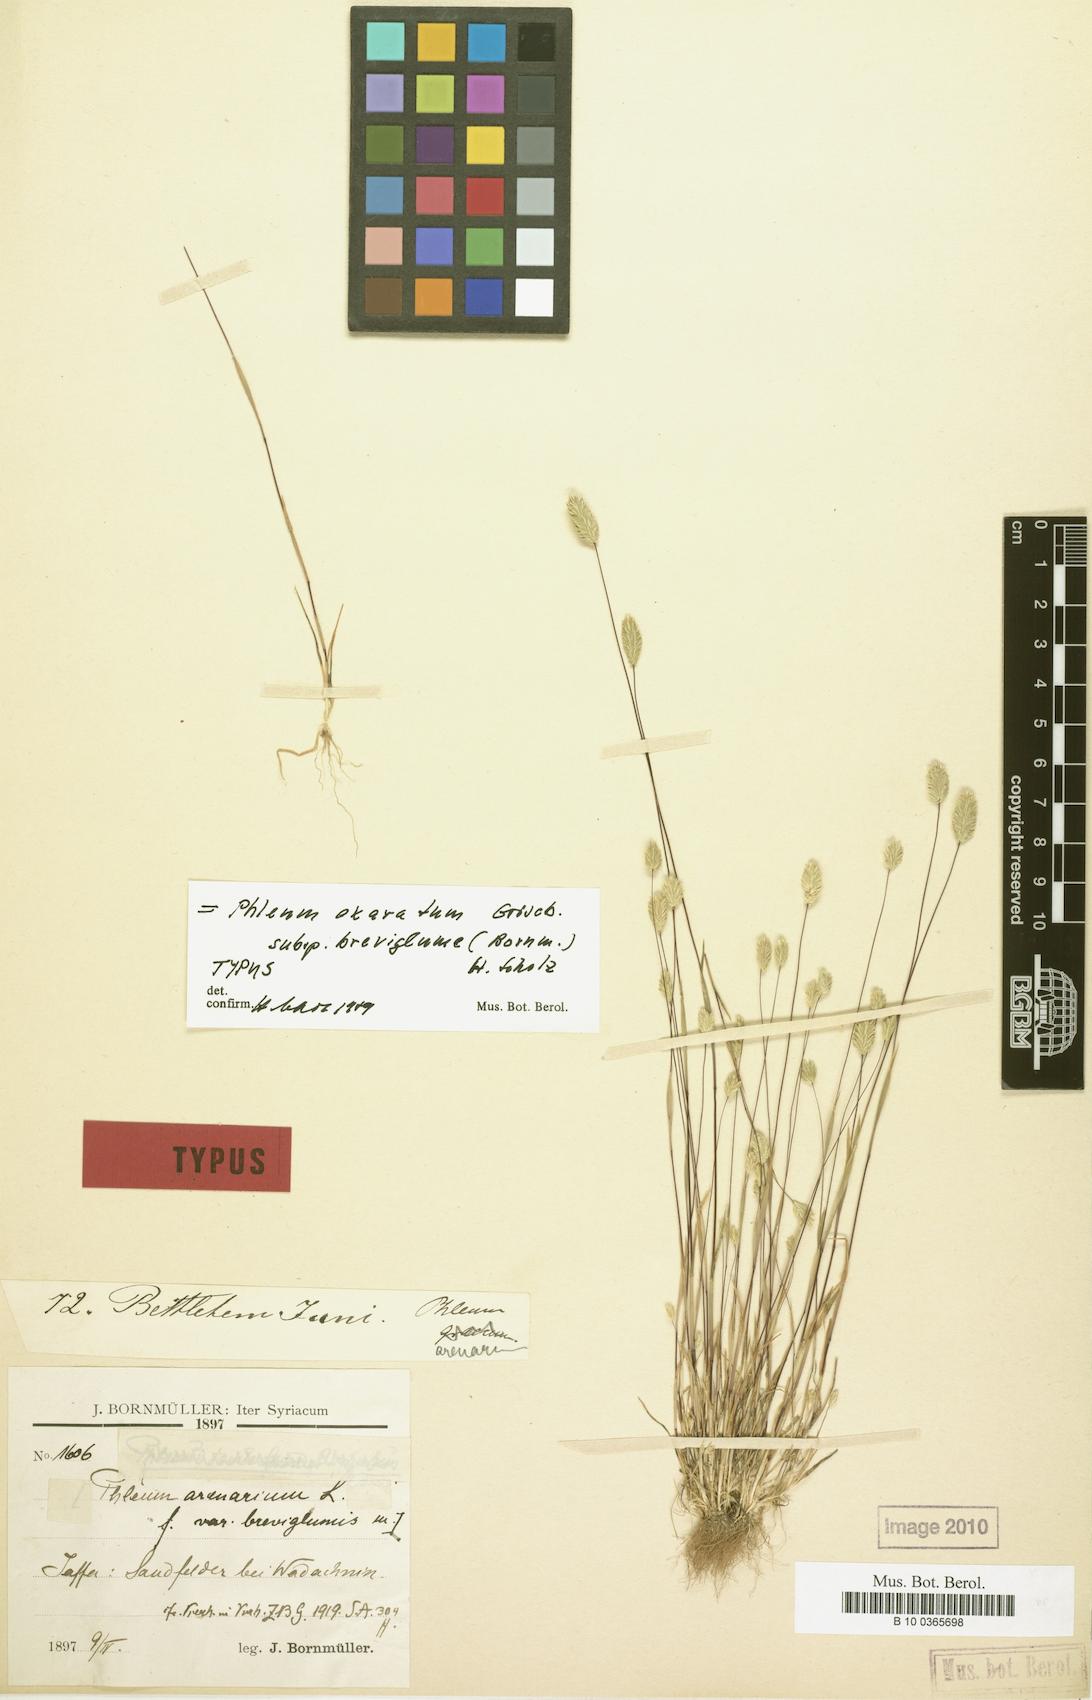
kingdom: Plantae
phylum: Tracheophyta
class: Liliopsida
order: Poales
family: Poaceae
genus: Phleum
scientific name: Phleum exaratum
